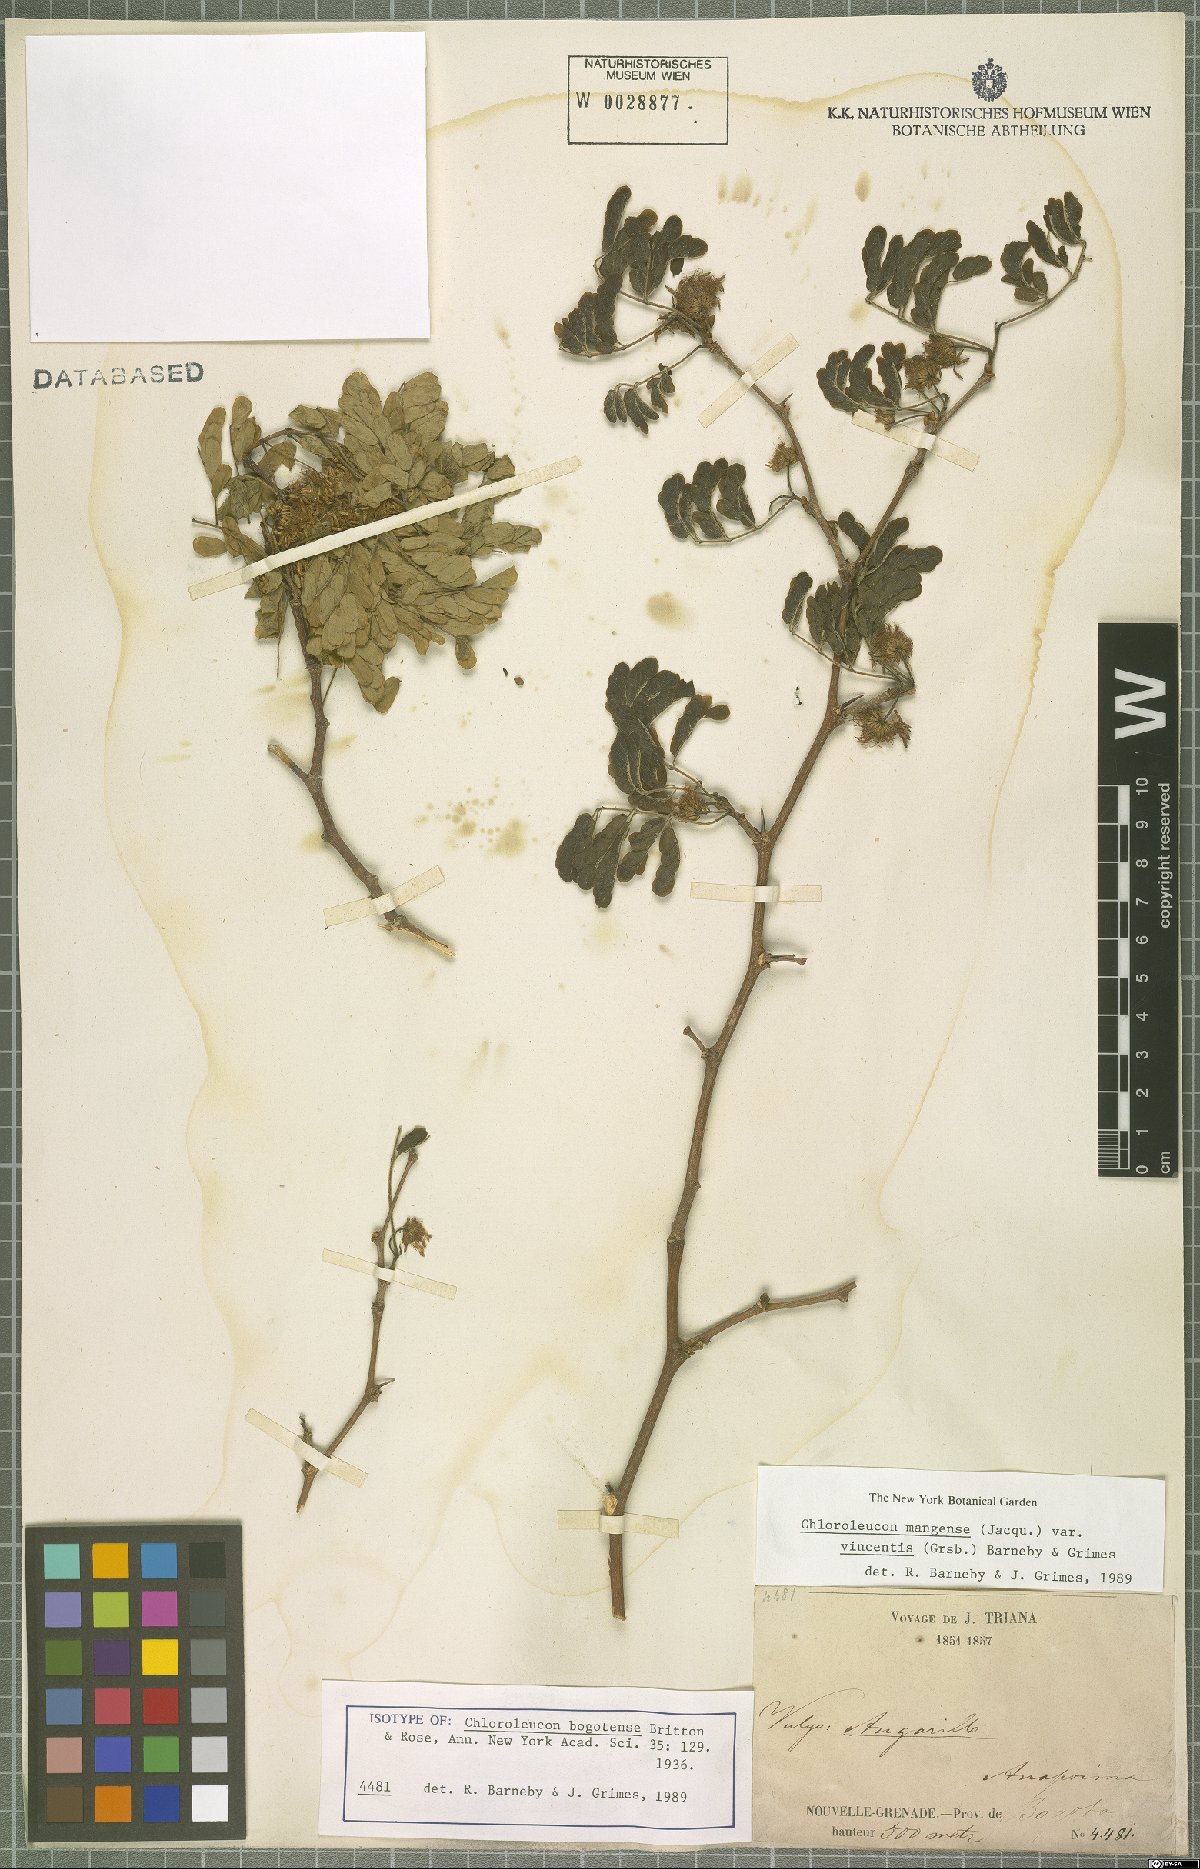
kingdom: Plantae
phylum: Tracheophyta
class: Magnoliopsida
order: Fabales
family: Fabaceae
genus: Chloroleucon
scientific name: Chloroleucon mangense
